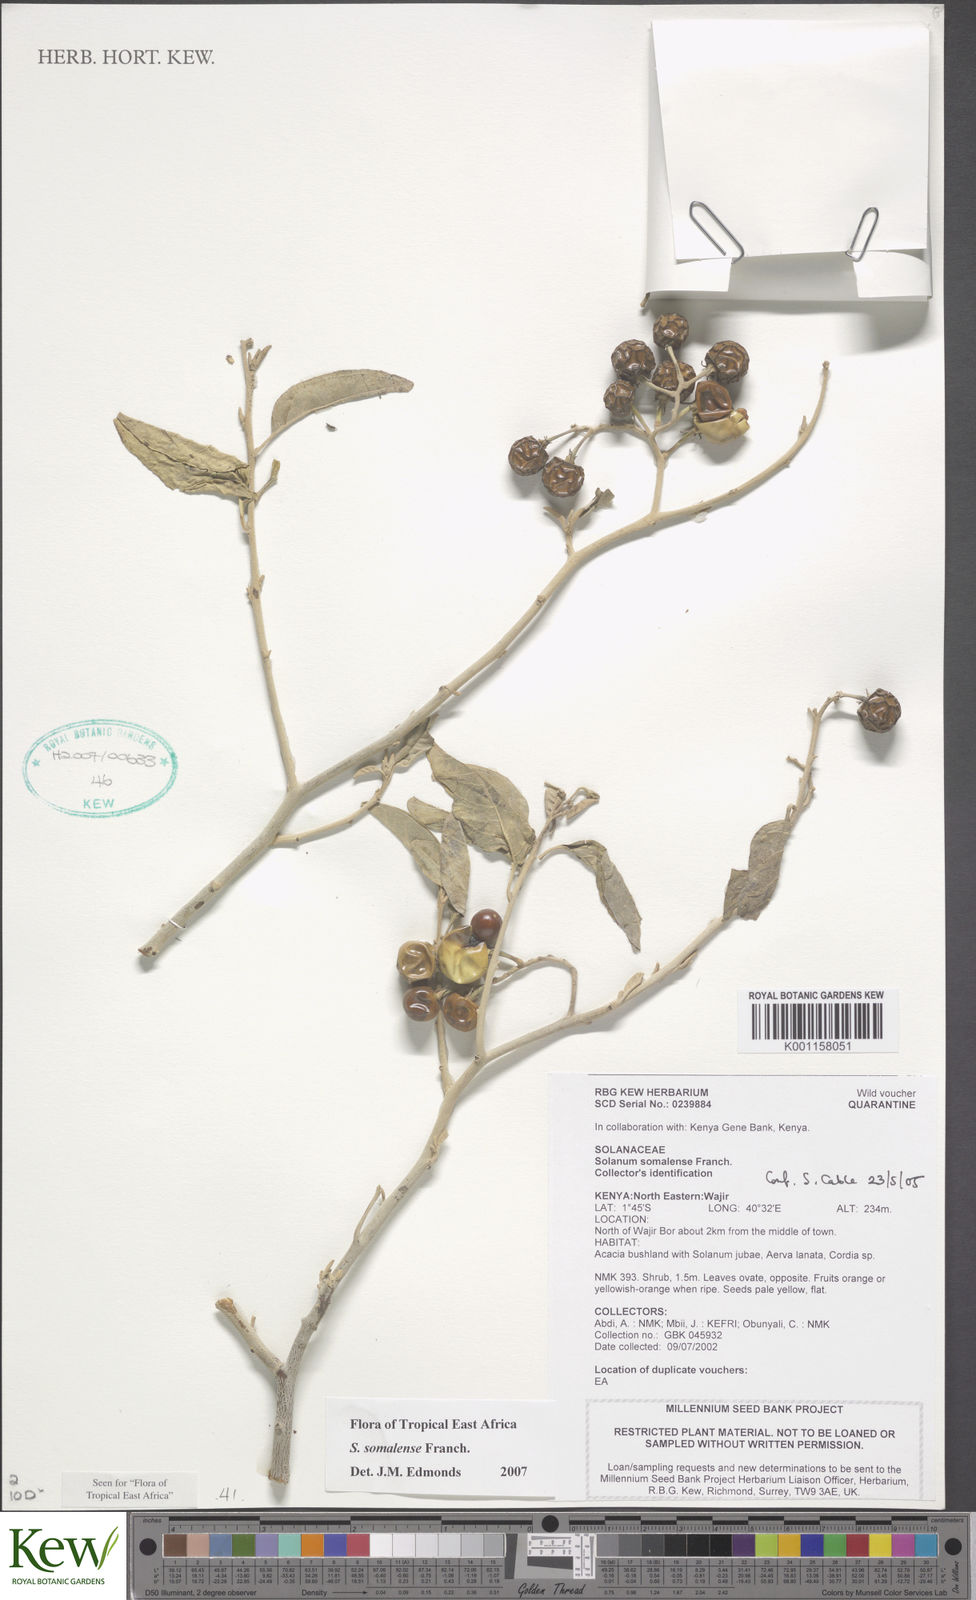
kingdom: Plantae
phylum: Tracheophyta
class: Magnoliopsida
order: Solanales
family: Solanaceae
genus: Solanum
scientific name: Solanum somalense
